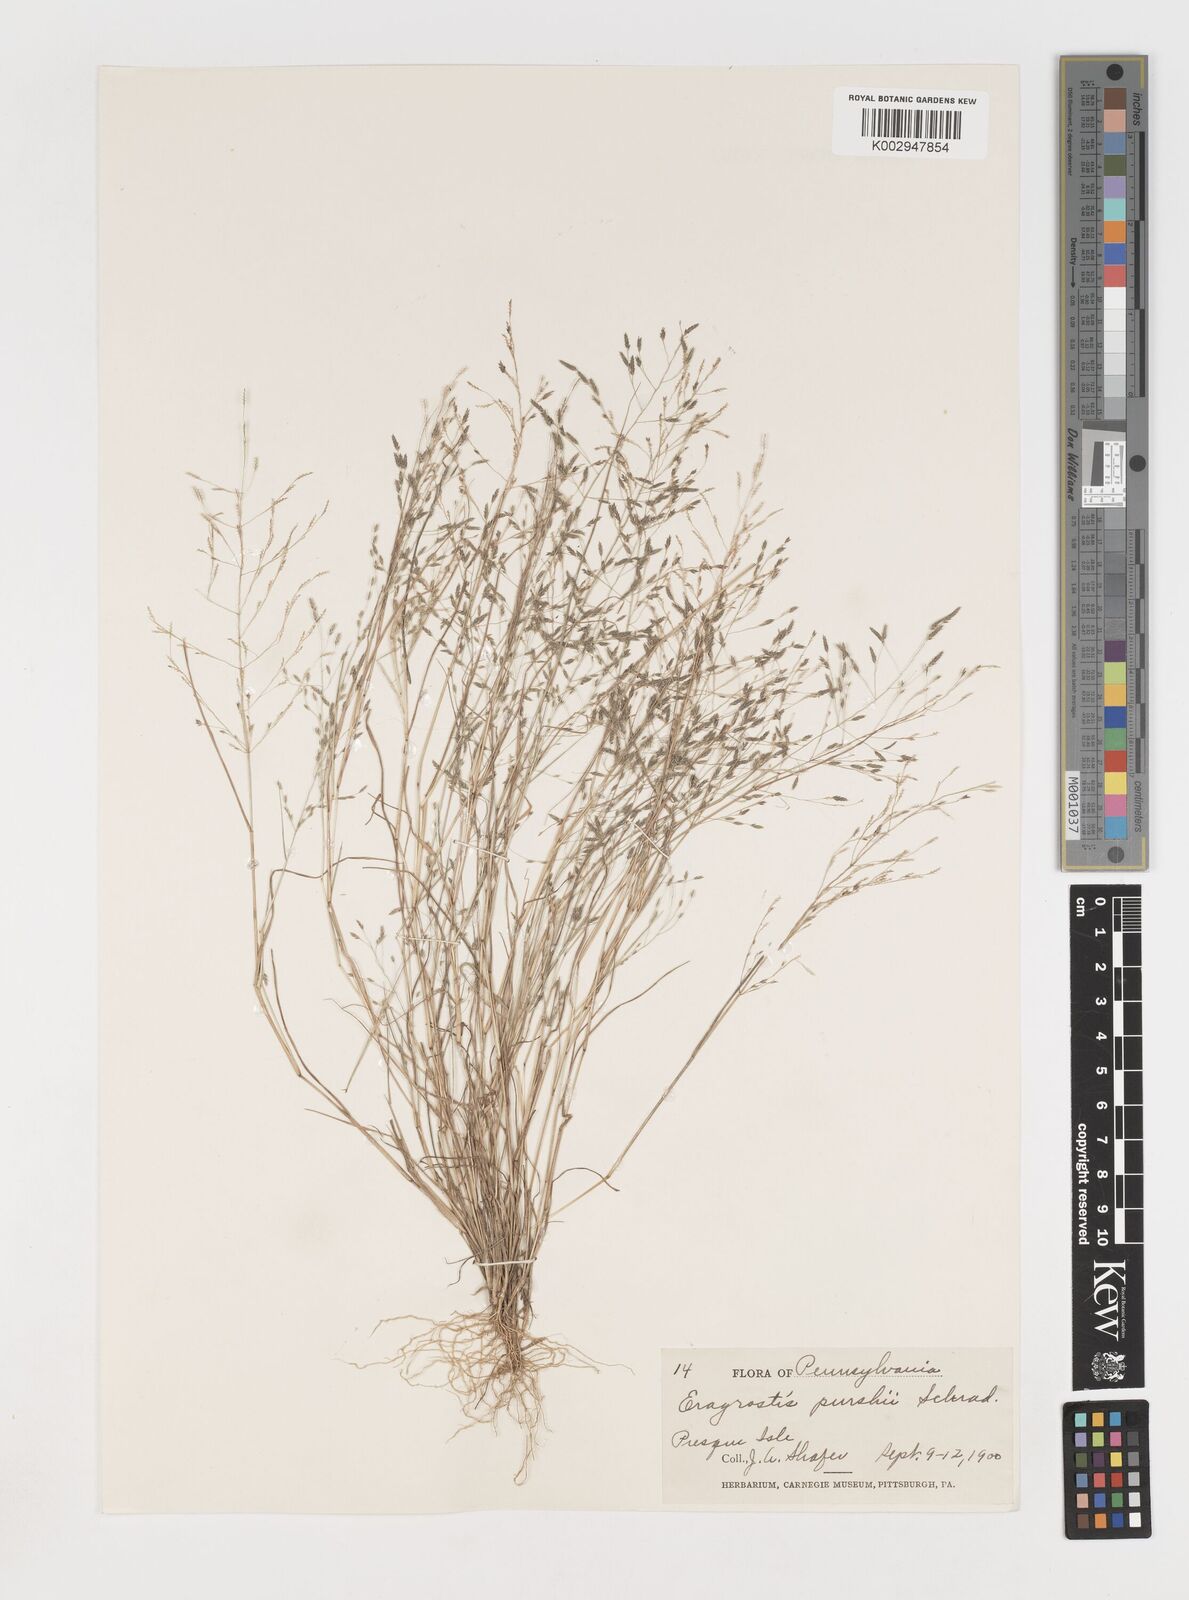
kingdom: Plantae
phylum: Tracheophyta
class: Liliopsida
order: Poales
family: Poaceae
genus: Eragrostis
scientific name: Eragrostis pectinacea
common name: Tufted lovegrass
